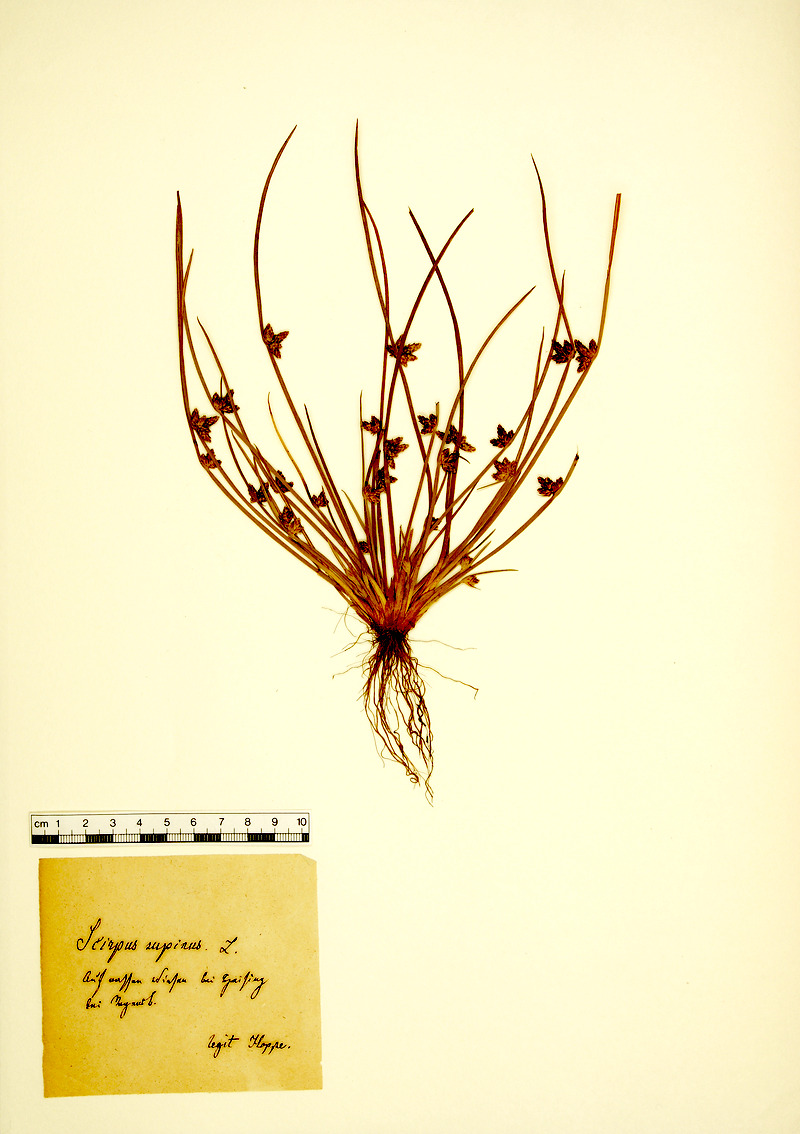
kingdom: Plantae
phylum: Tracheophyta
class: Liliopsida
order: Poales
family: Cyperaceae
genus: Schoenoplectiella
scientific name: Schoenoplectiella supina
